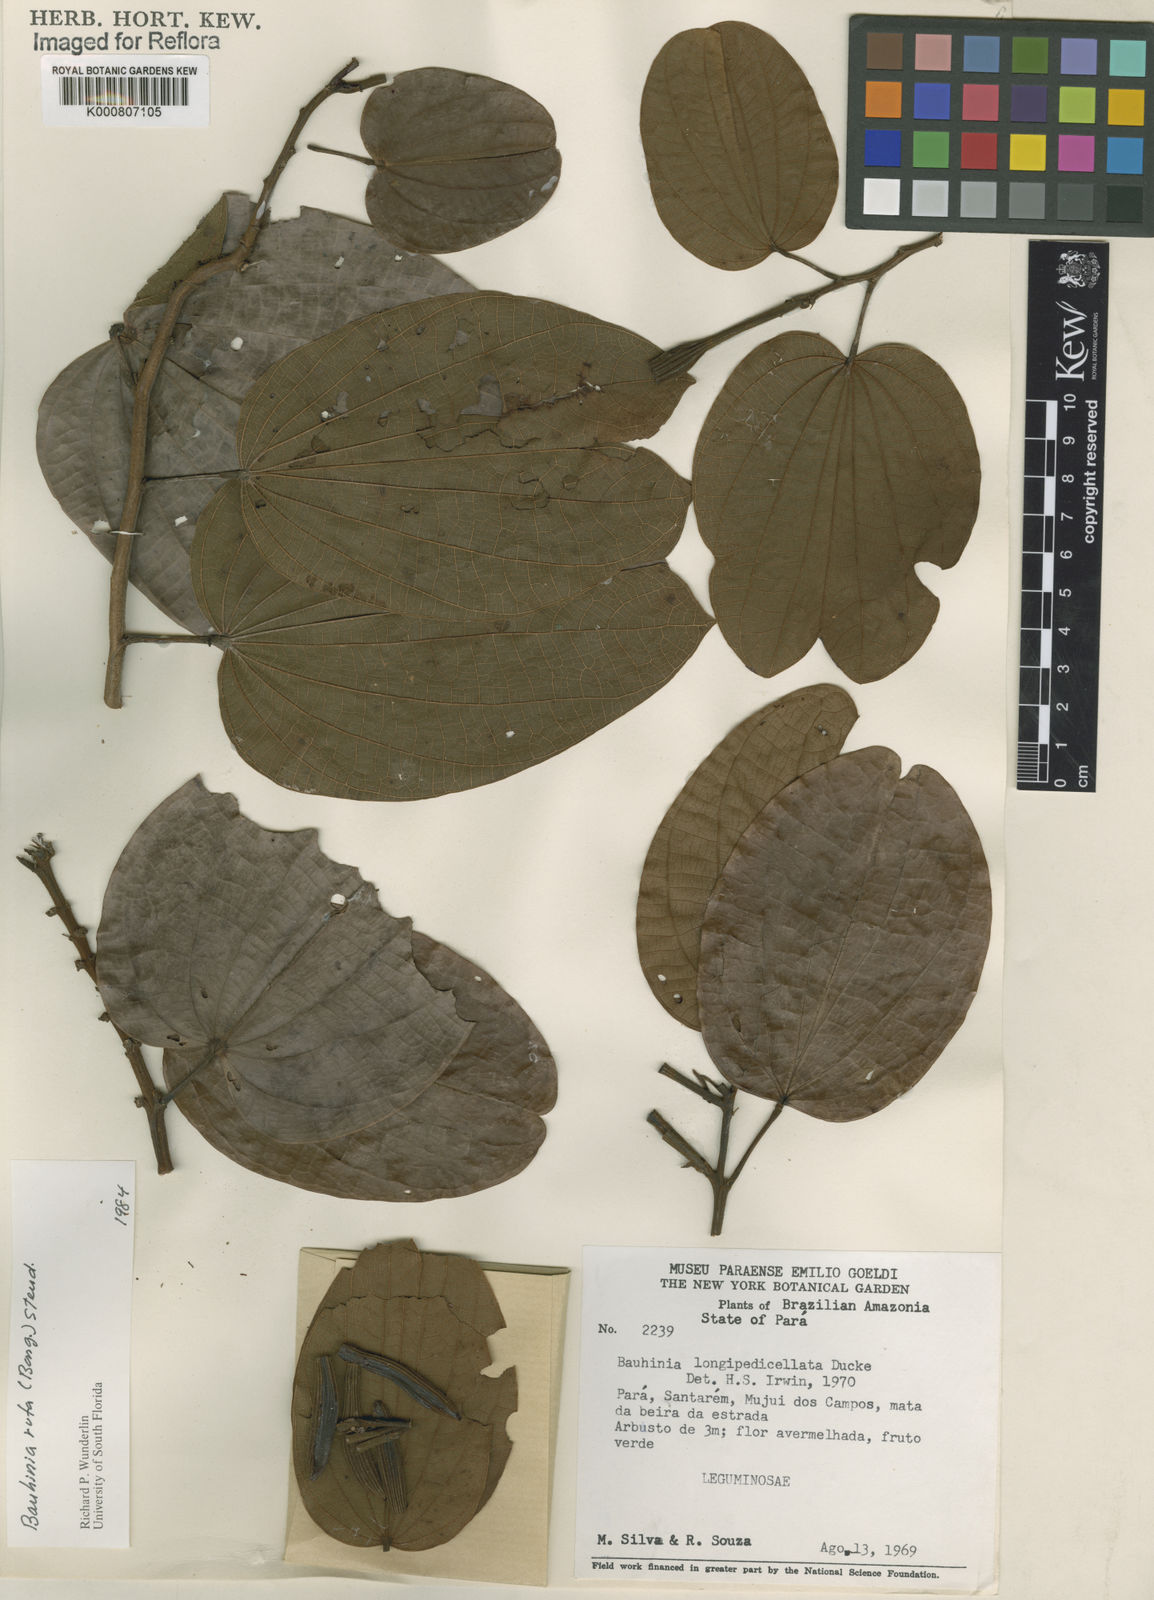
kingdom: Plantae
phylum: Tracheophyta
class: Magnoliopsida
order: Fabales
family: Fabaceae
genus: Bauhinia
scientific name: Bauhinia rufa
